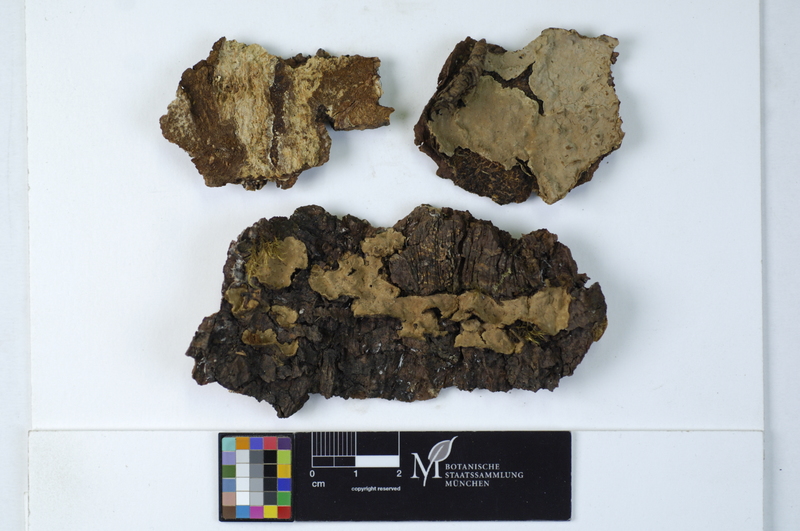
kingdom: Fungi
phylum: Basidiomycota
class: Agaricomycetes
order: Russulales
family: Echinodontiaceae
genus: Amylostereum
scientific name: Amylostereum chailletii
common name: Powdered duster
